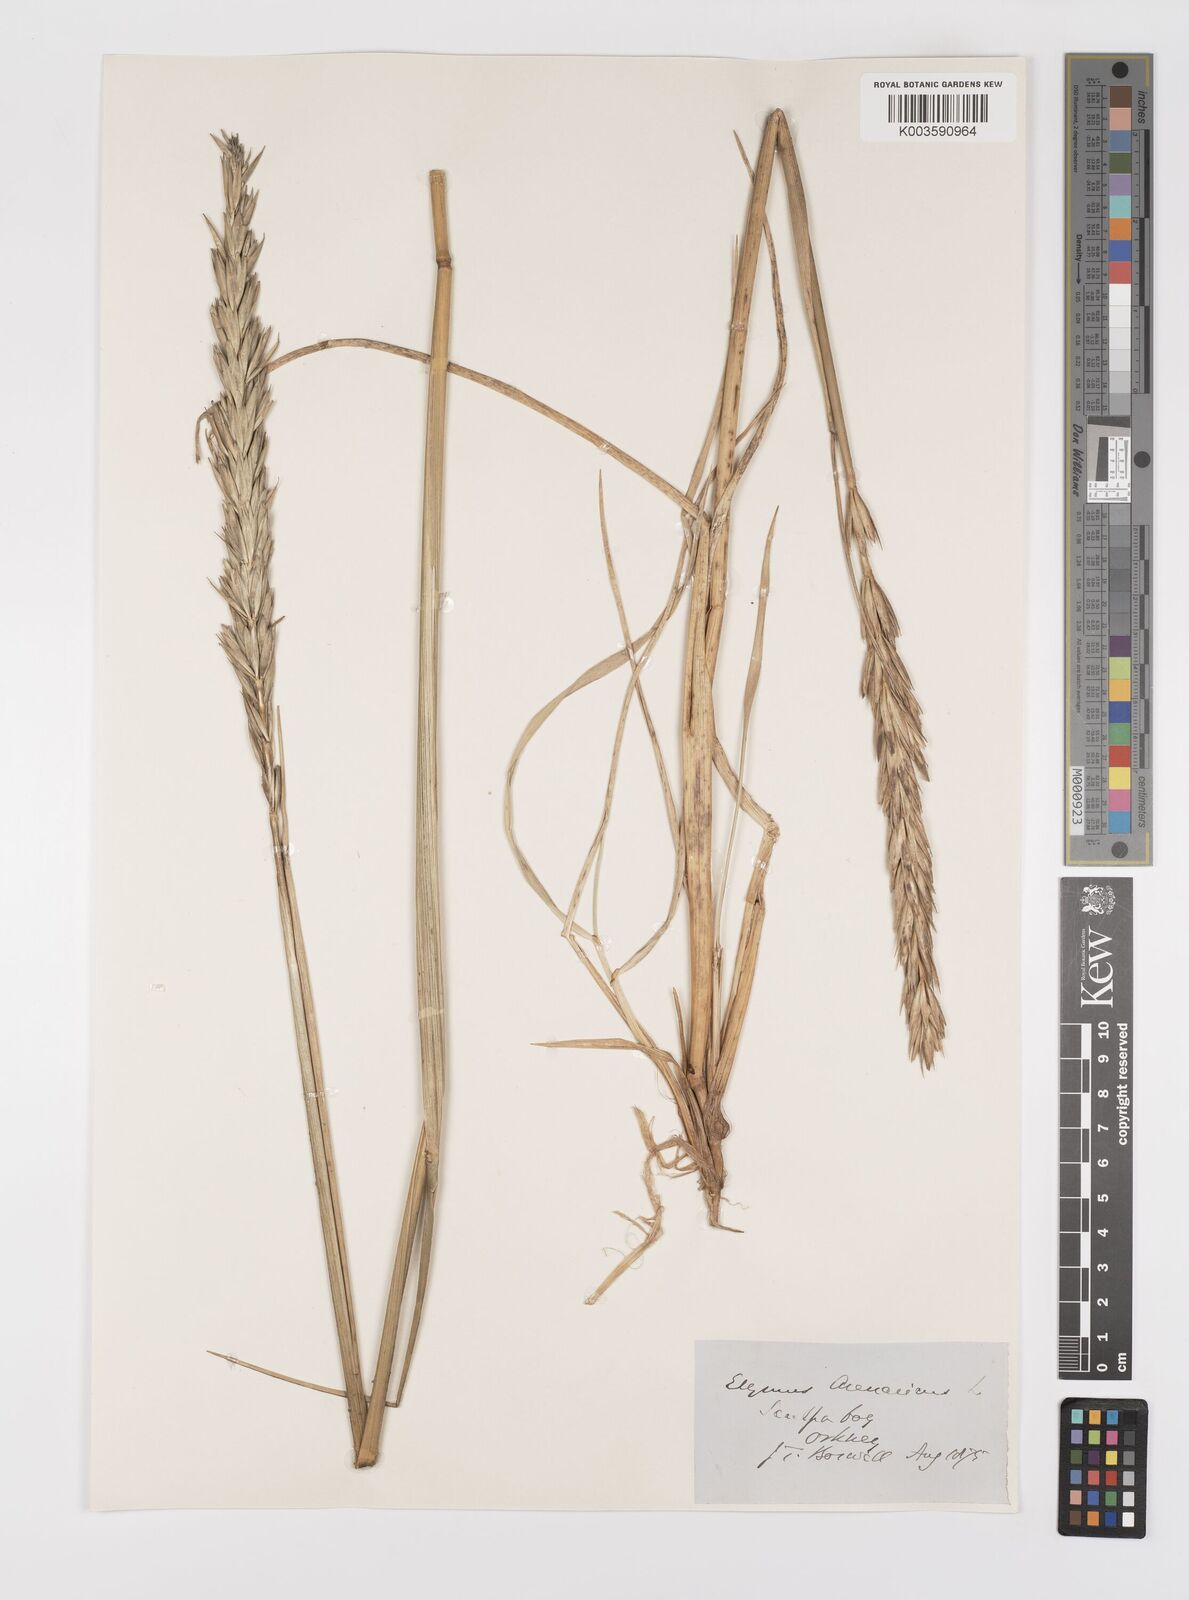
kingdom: Plantae
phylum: Tracheophyta
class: Liliopsida
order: Poales
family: Poaceae
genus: Leymus
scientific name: Leymus arenarius
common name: Lyme-grass
